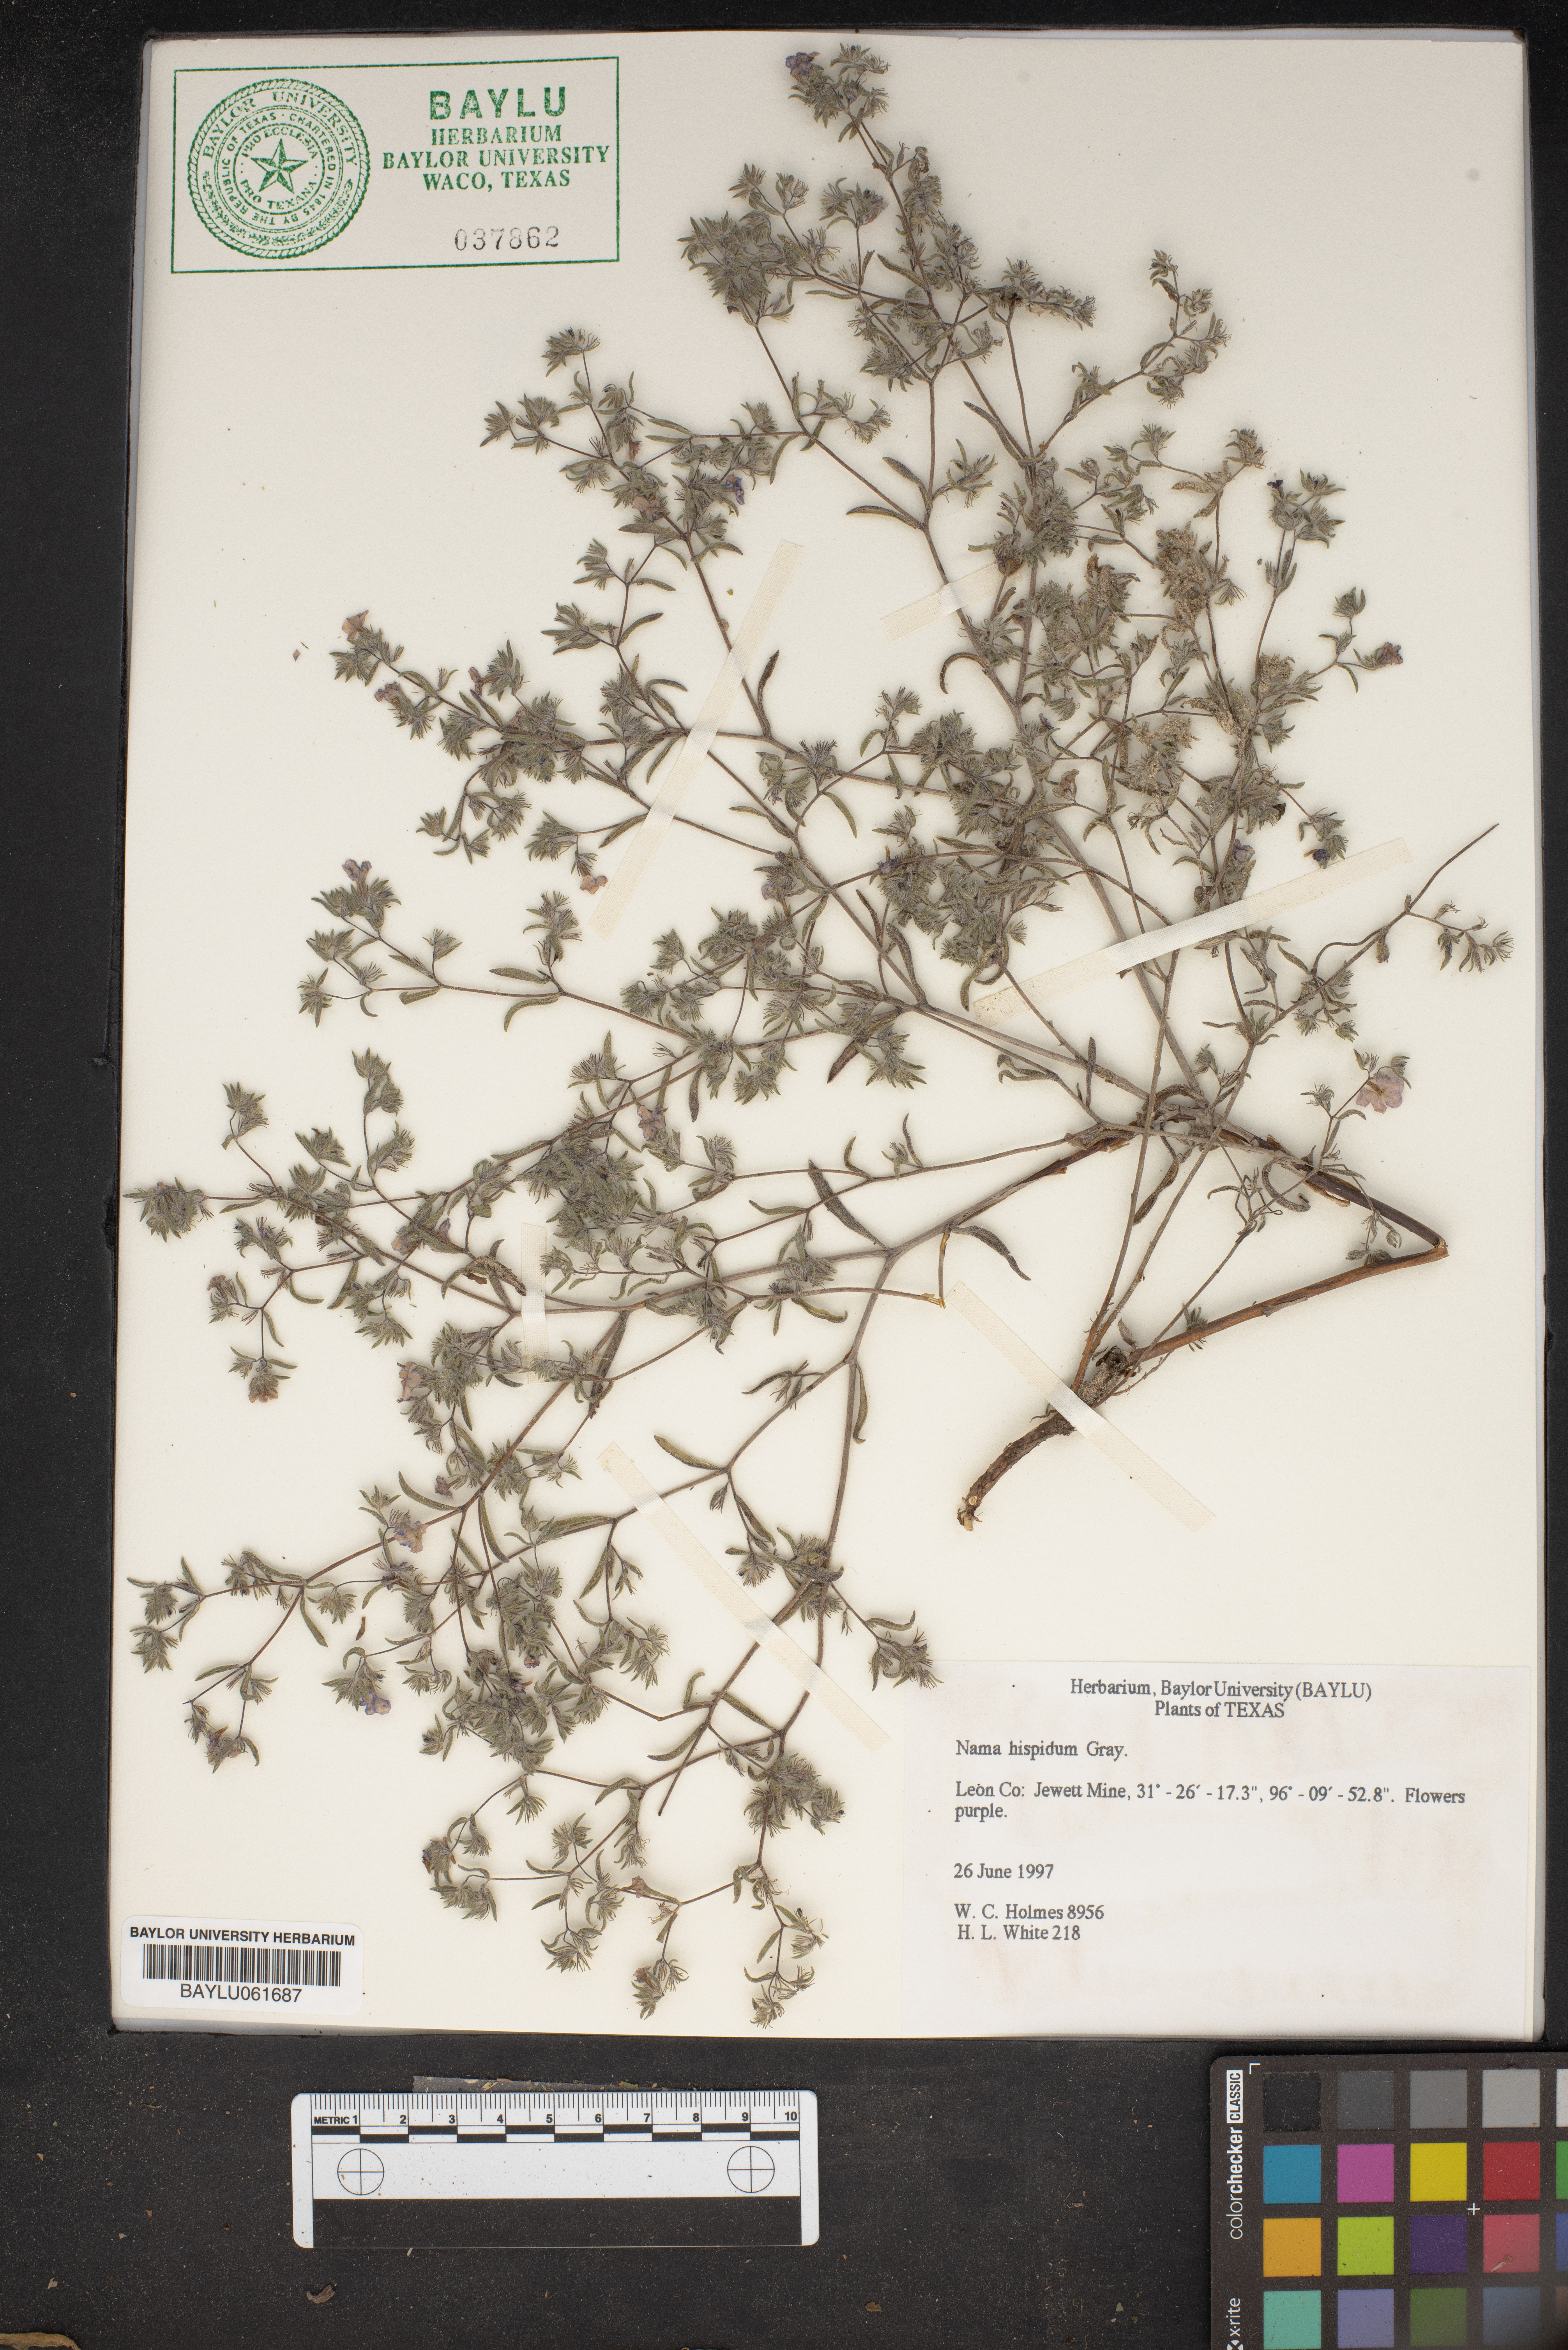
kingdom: Plantae
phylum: Tracheophyta
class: Magnoliopsida
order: Boraginales
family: Namaceae
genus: Nama
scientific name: Nama hispida
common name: Bristly nama
